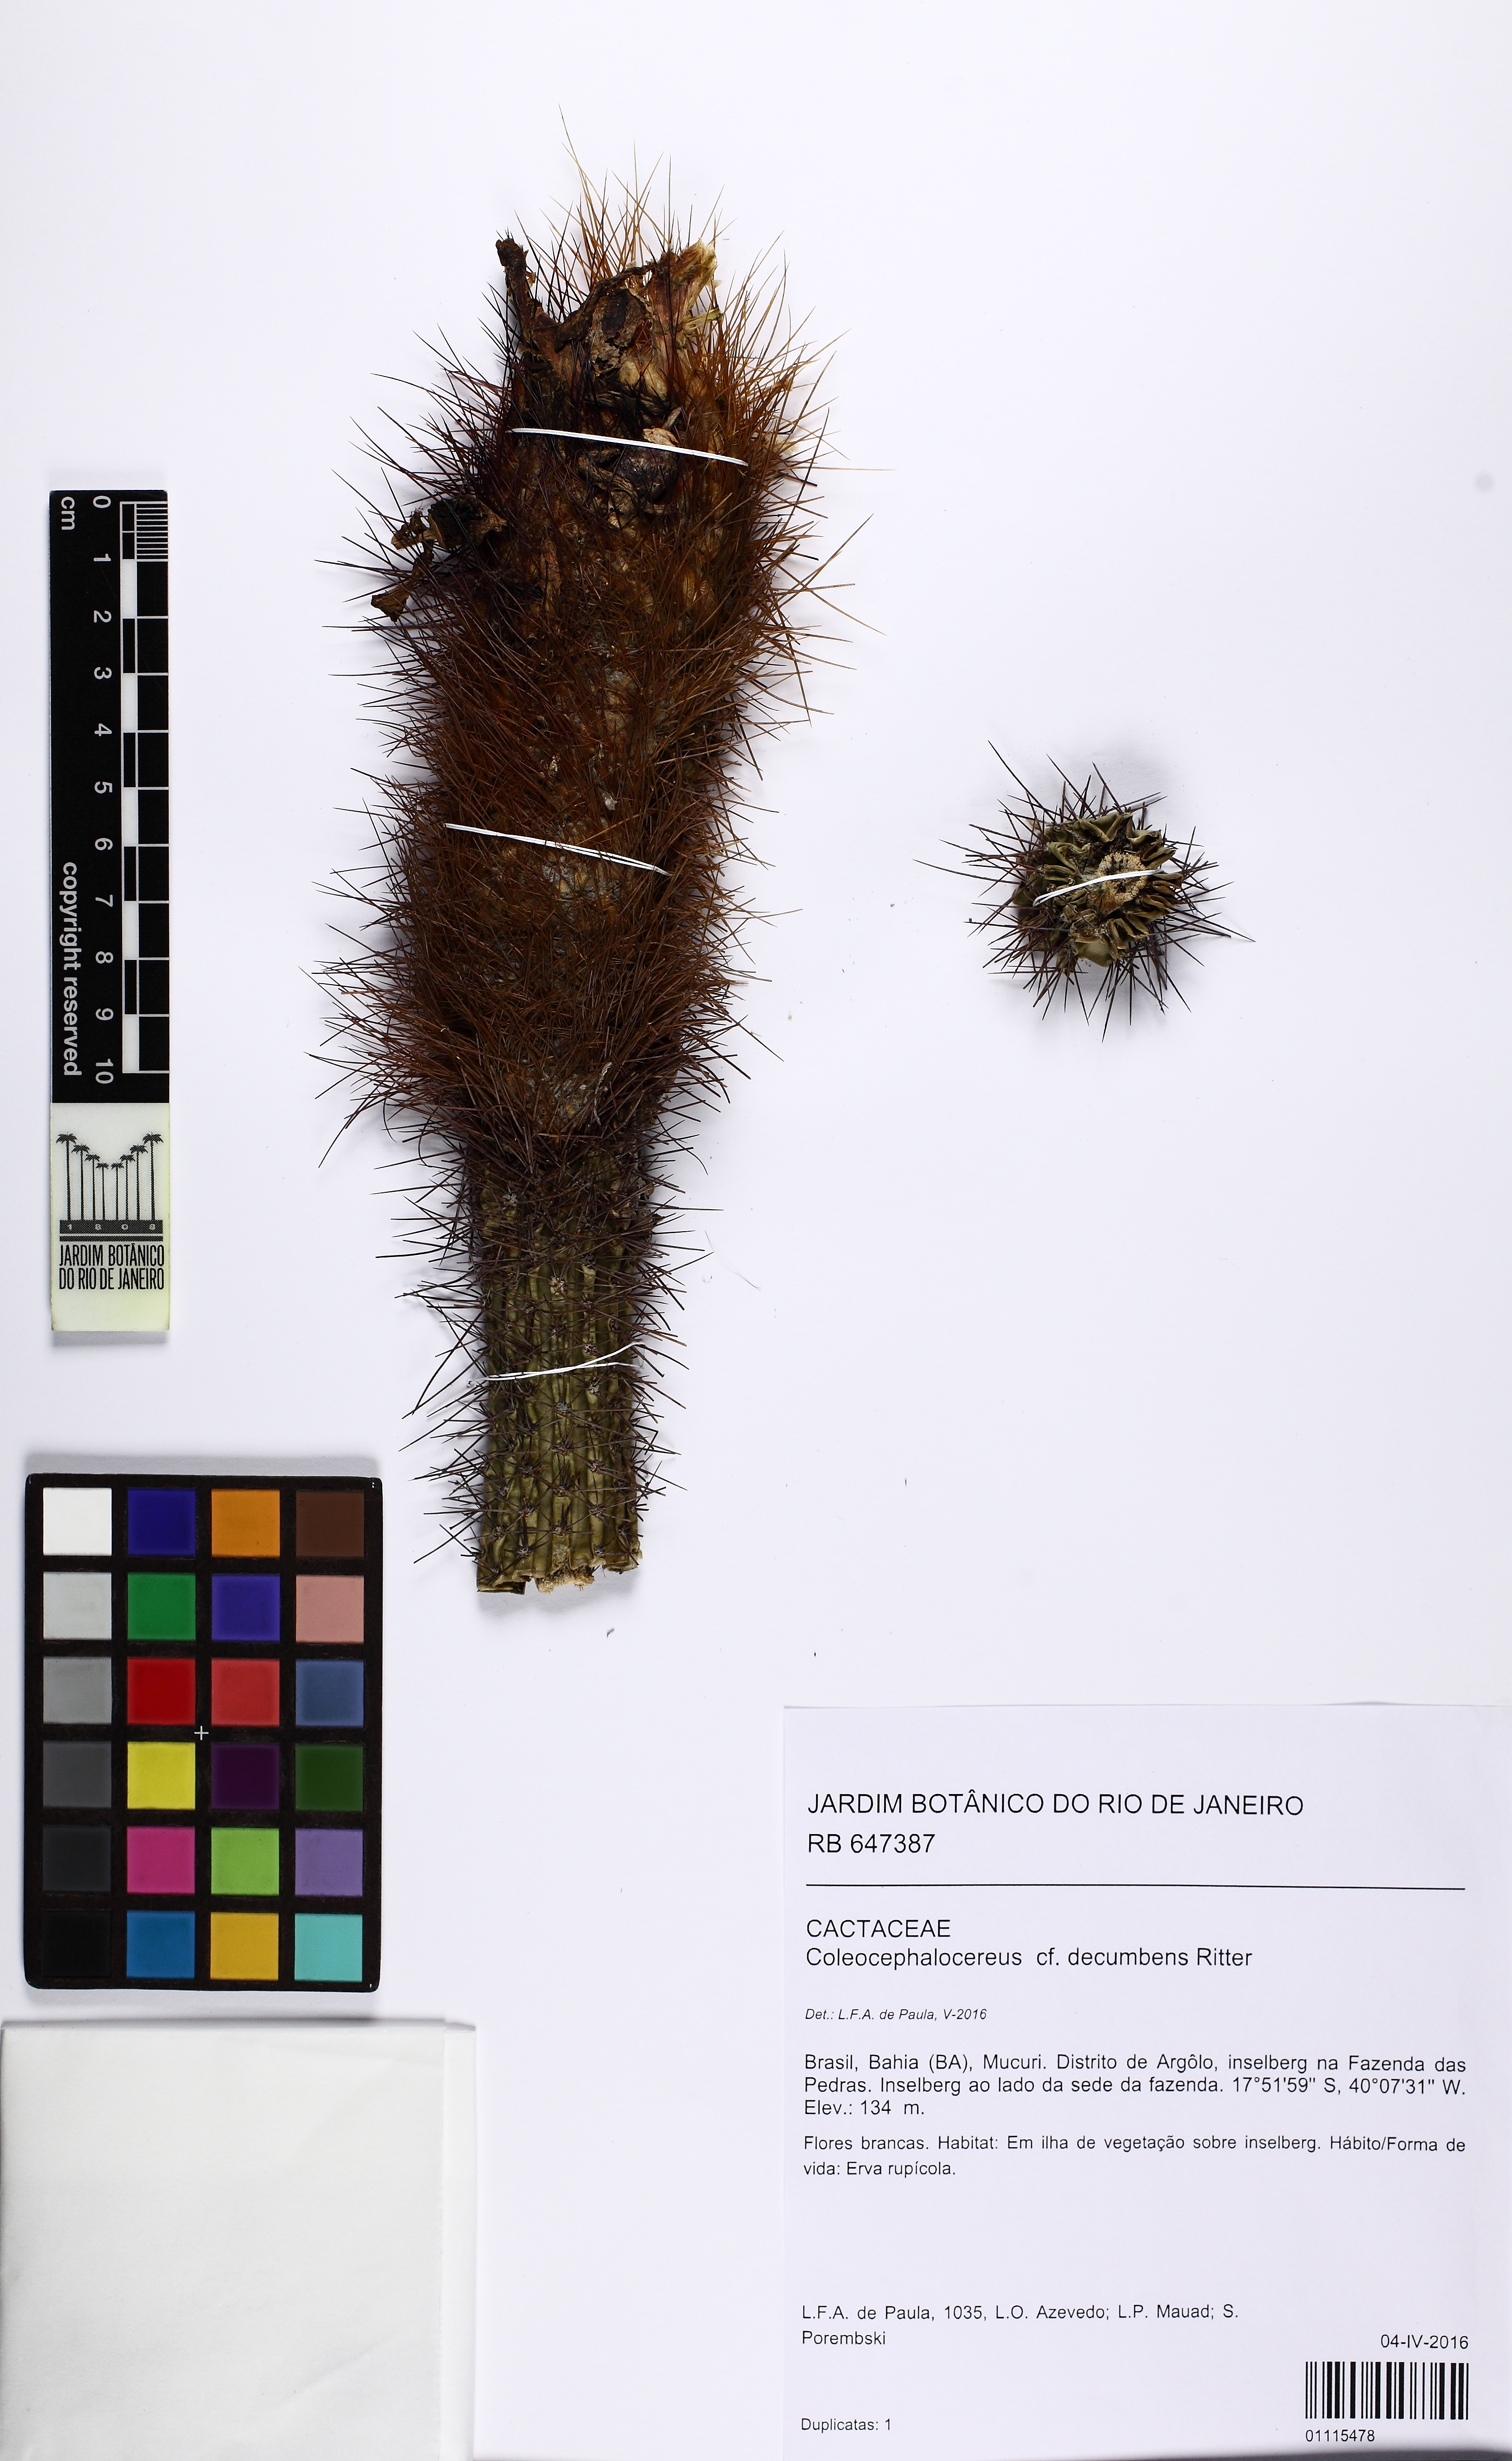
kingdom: Plantae
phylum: Tracheophyta
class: Magnoliopsida
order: Caryophyllales
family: Cactaceae
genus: Coleocephalocereus
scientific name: Coleocephalocereus decumbens
